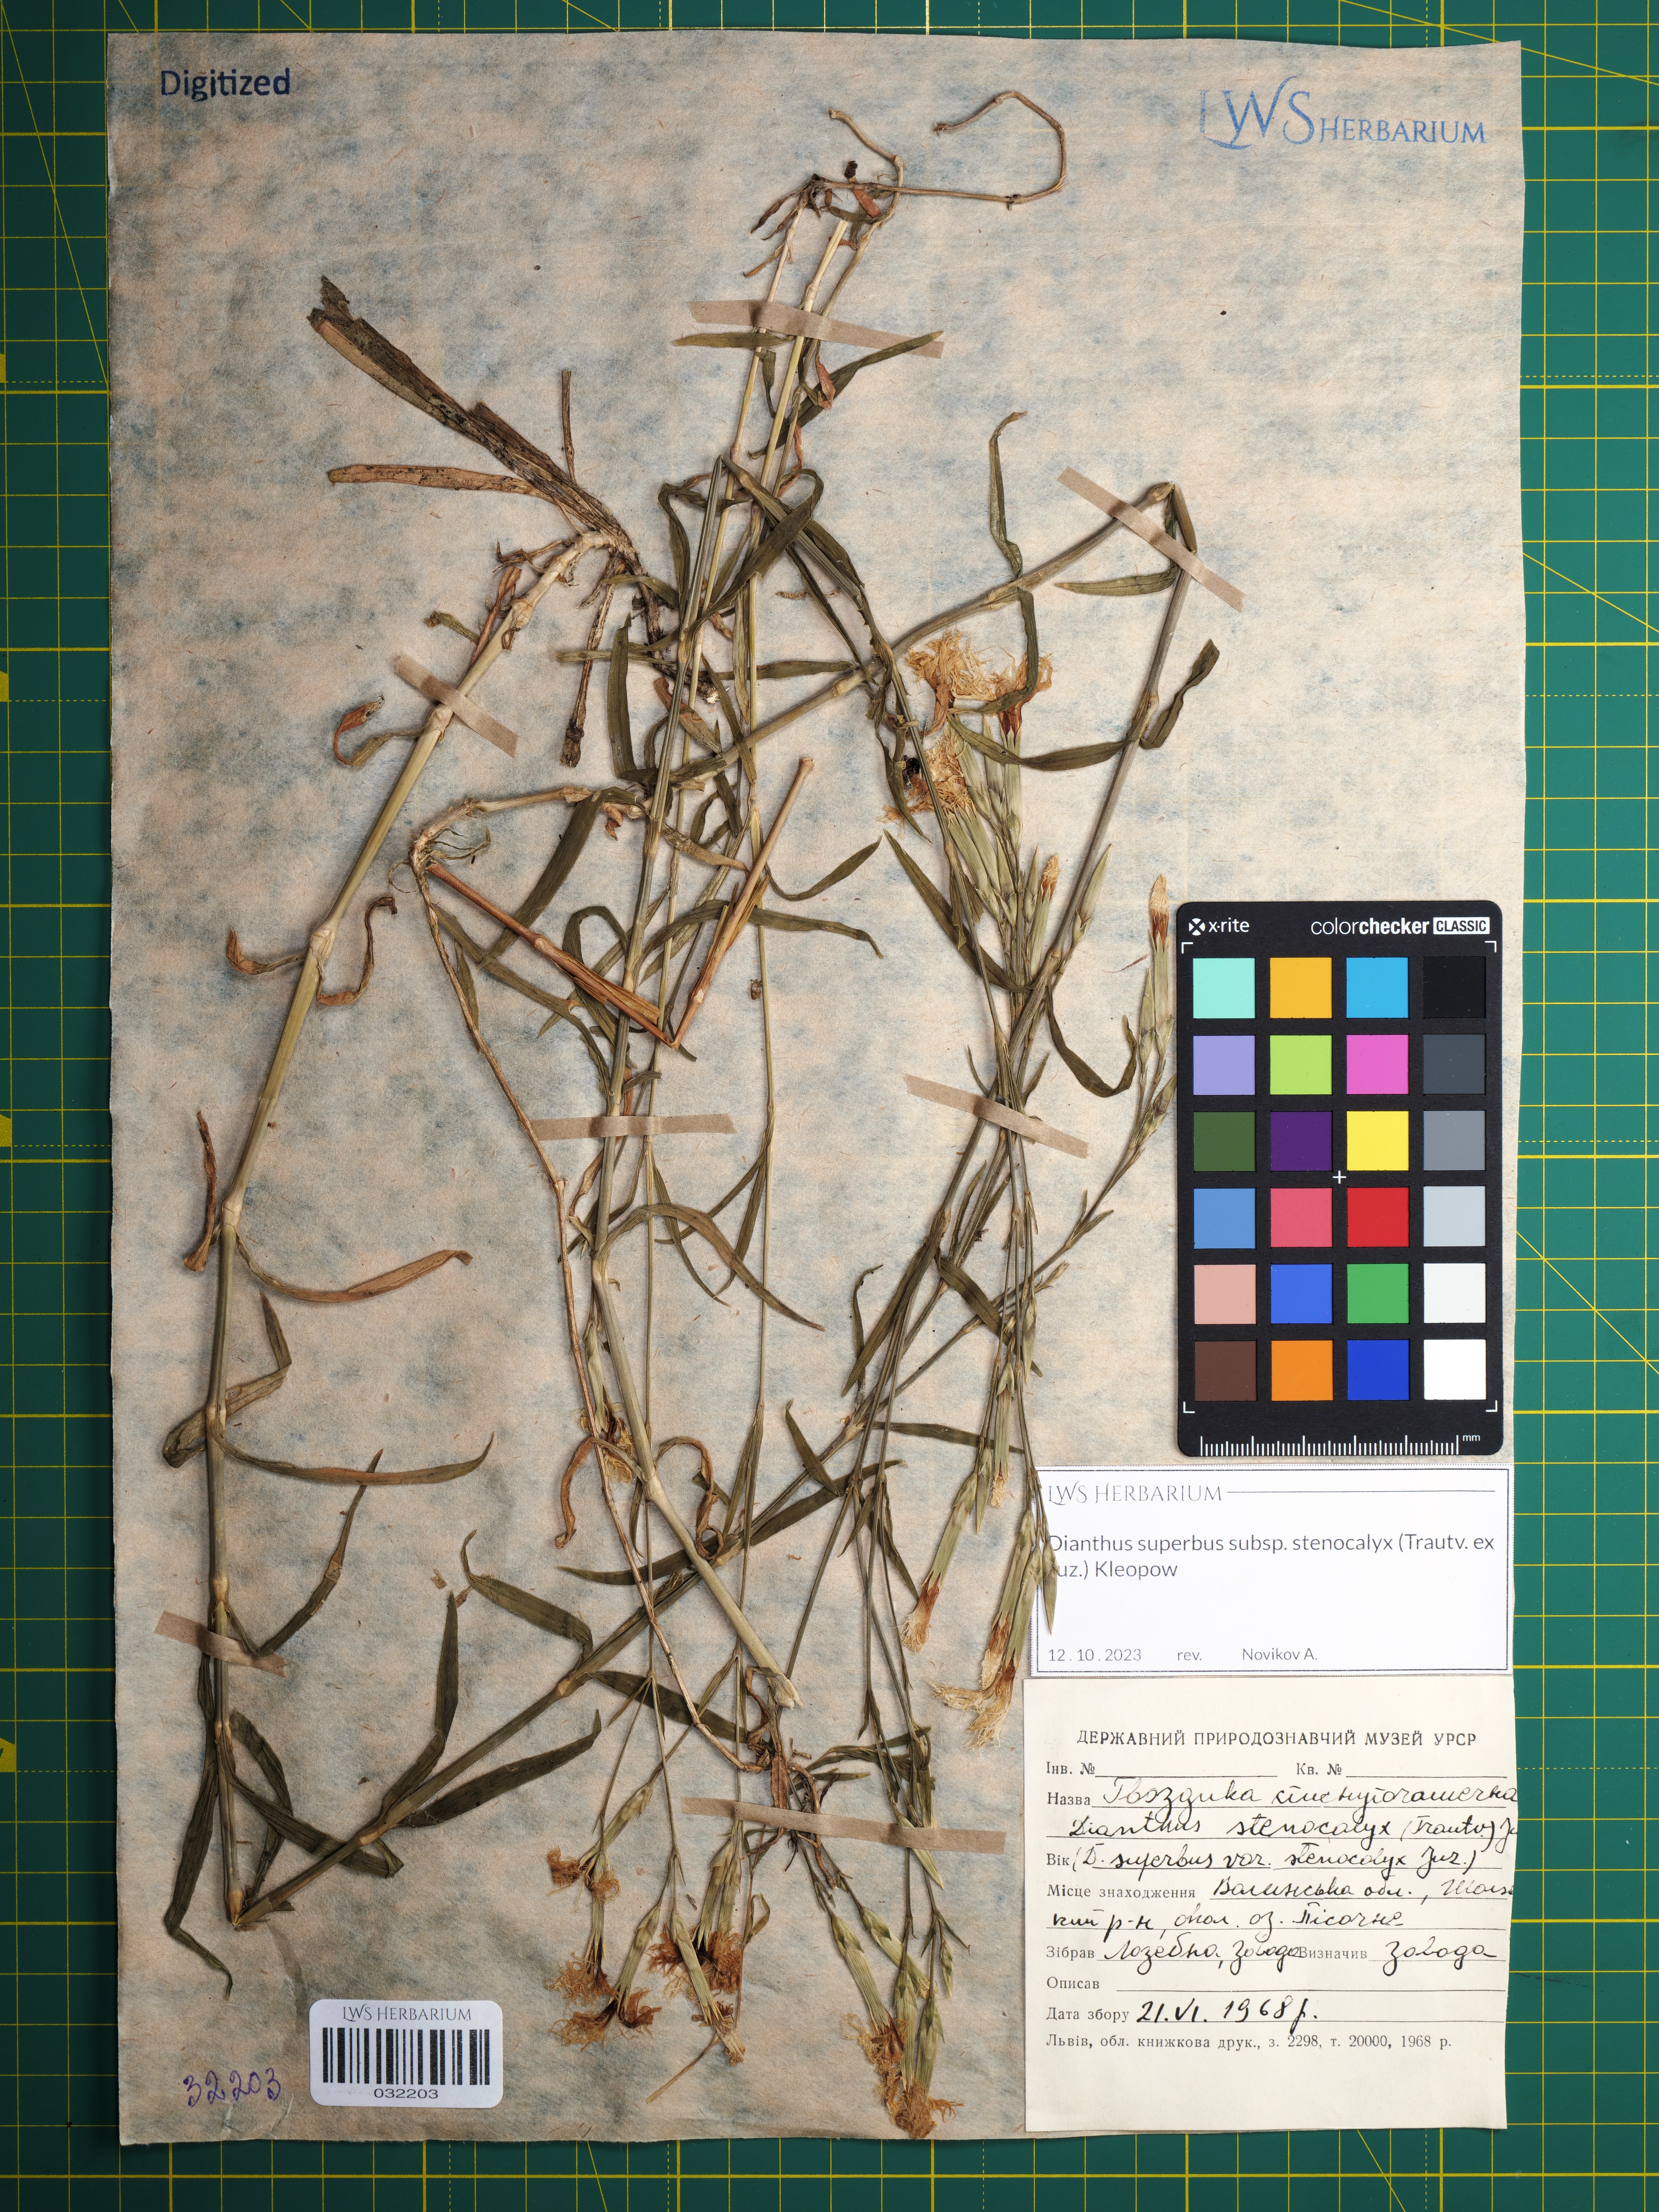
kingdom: Plantae
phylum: Tracheophyta
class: Magnoliopsida
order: Caryophyllales
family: Caryophyllaceae
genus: Dianthus
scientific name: Dianthus superbus
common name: Fringed pink
